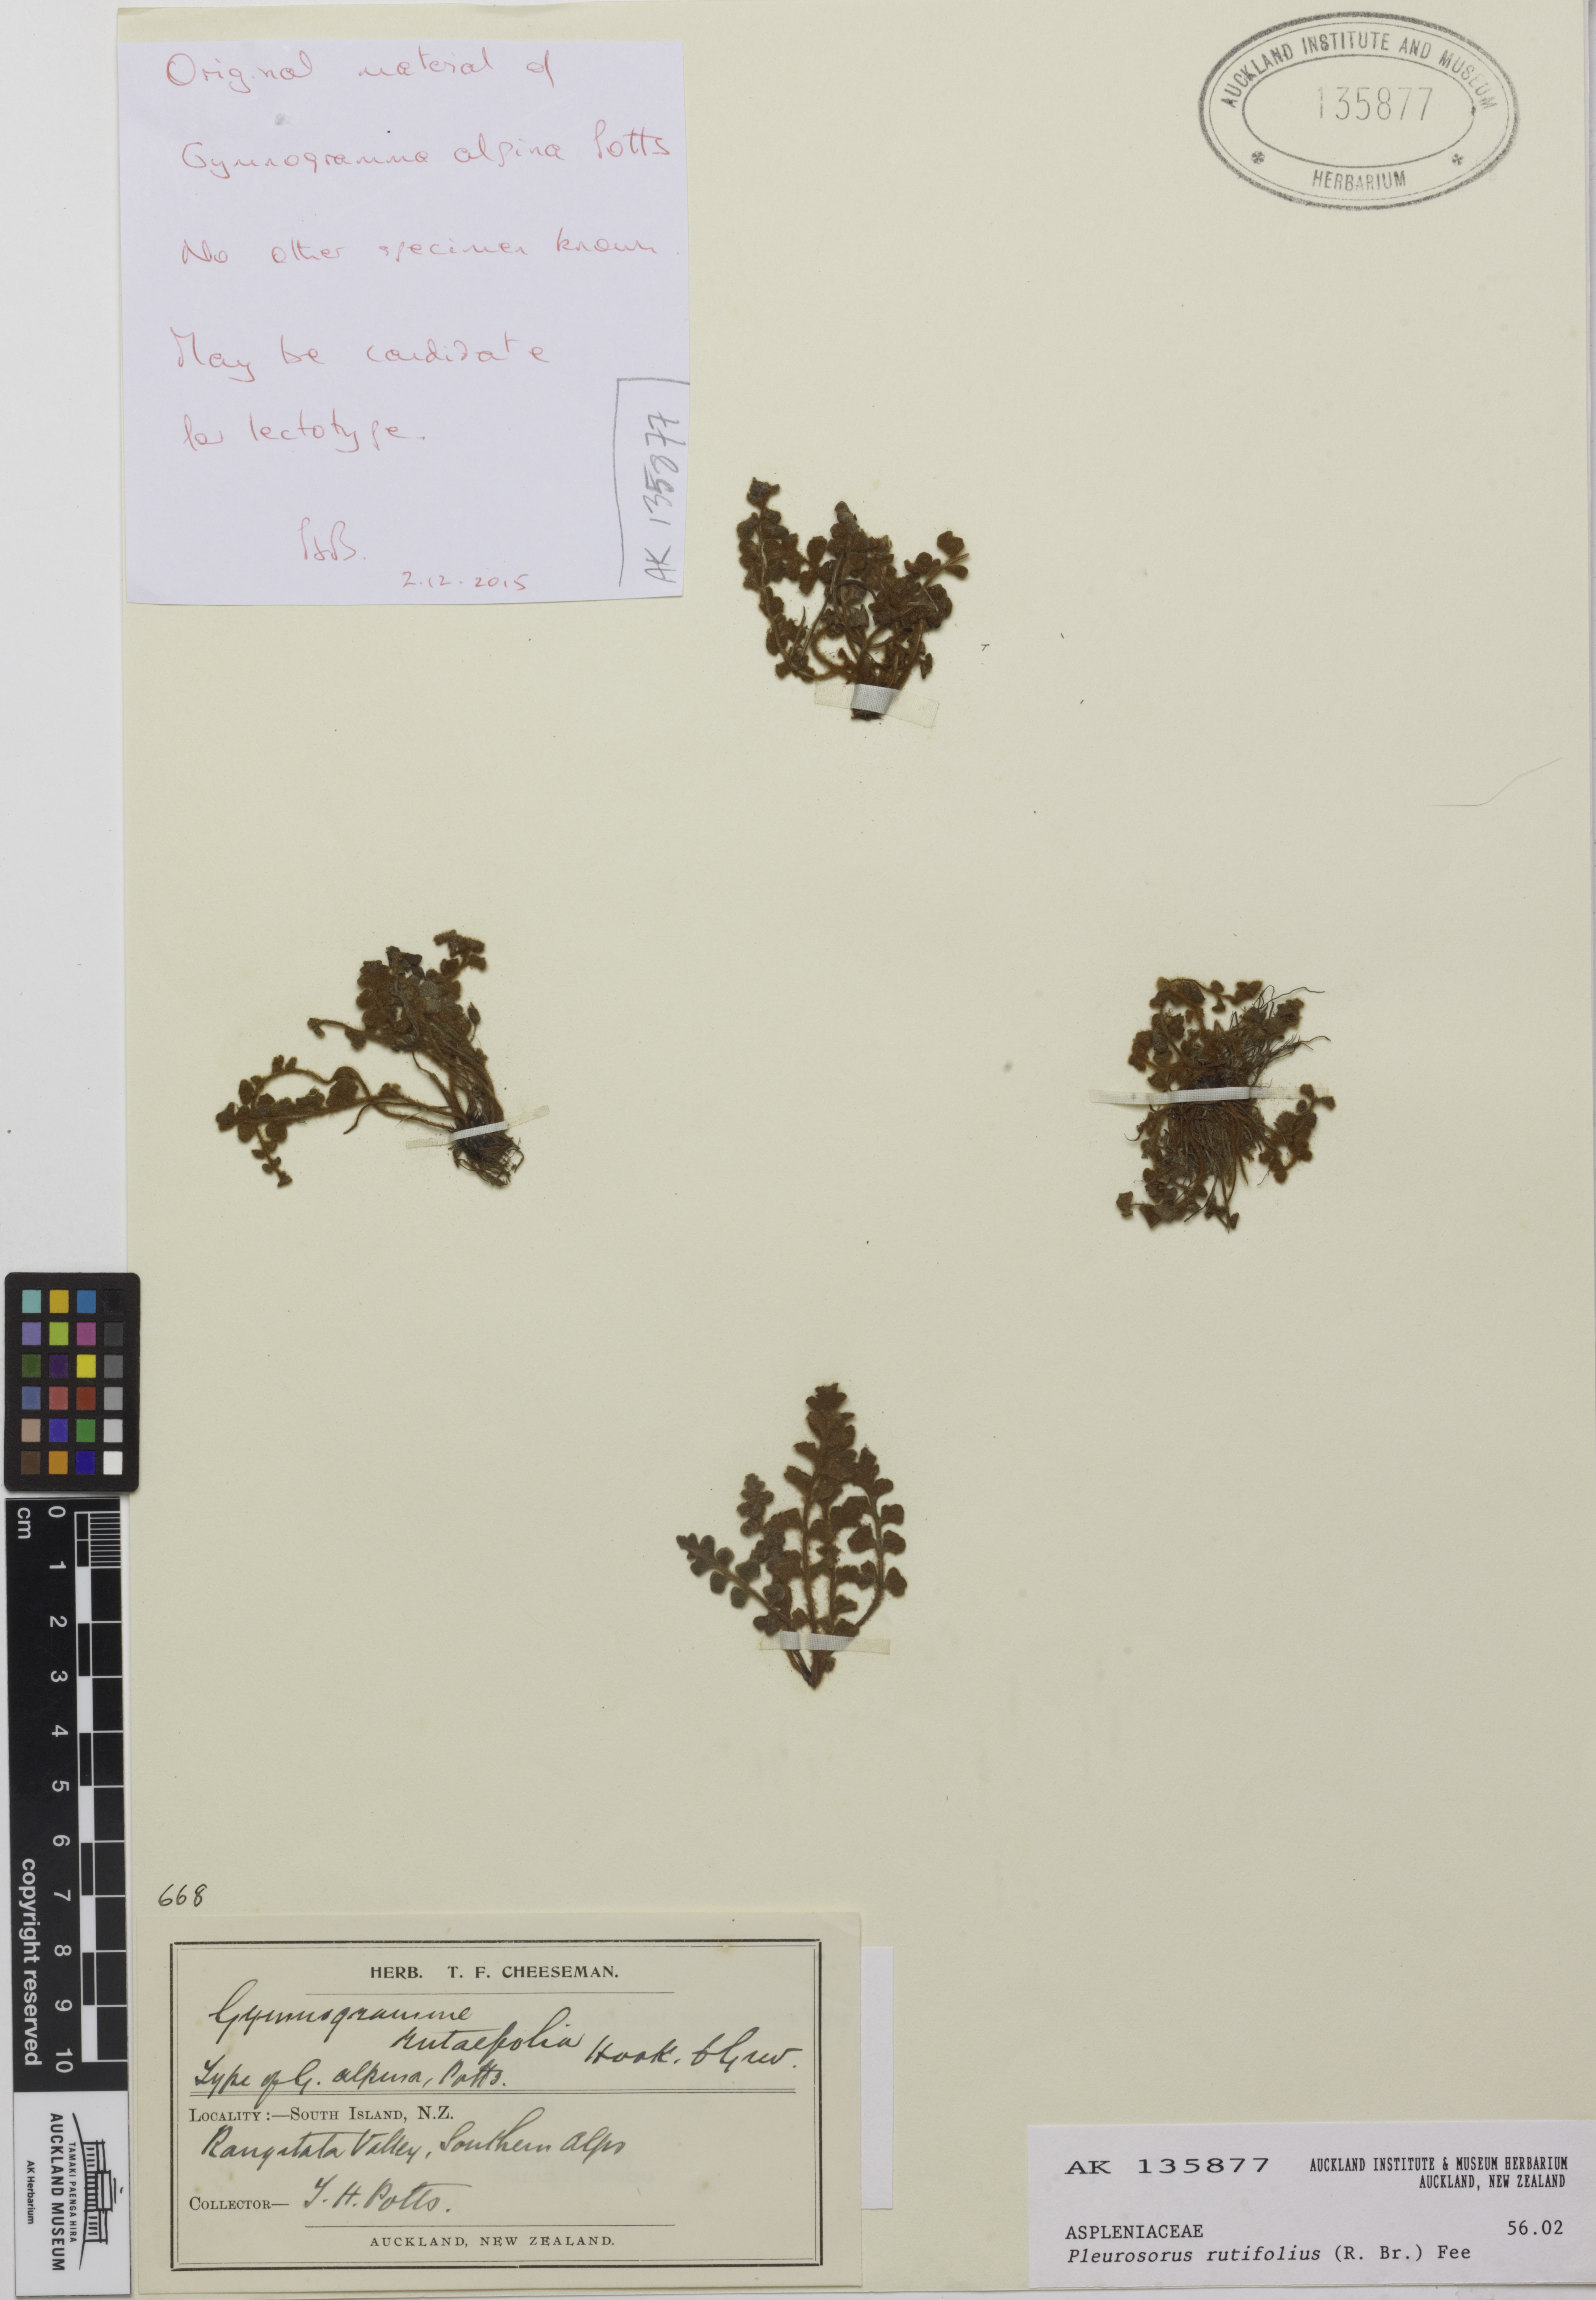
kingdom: Plantae
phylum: Tracheophyta
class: Polypodiopsida
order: Polypodiales
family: Aspleniaceae
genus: Asplenium
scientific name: Asplenium subglandulosum
